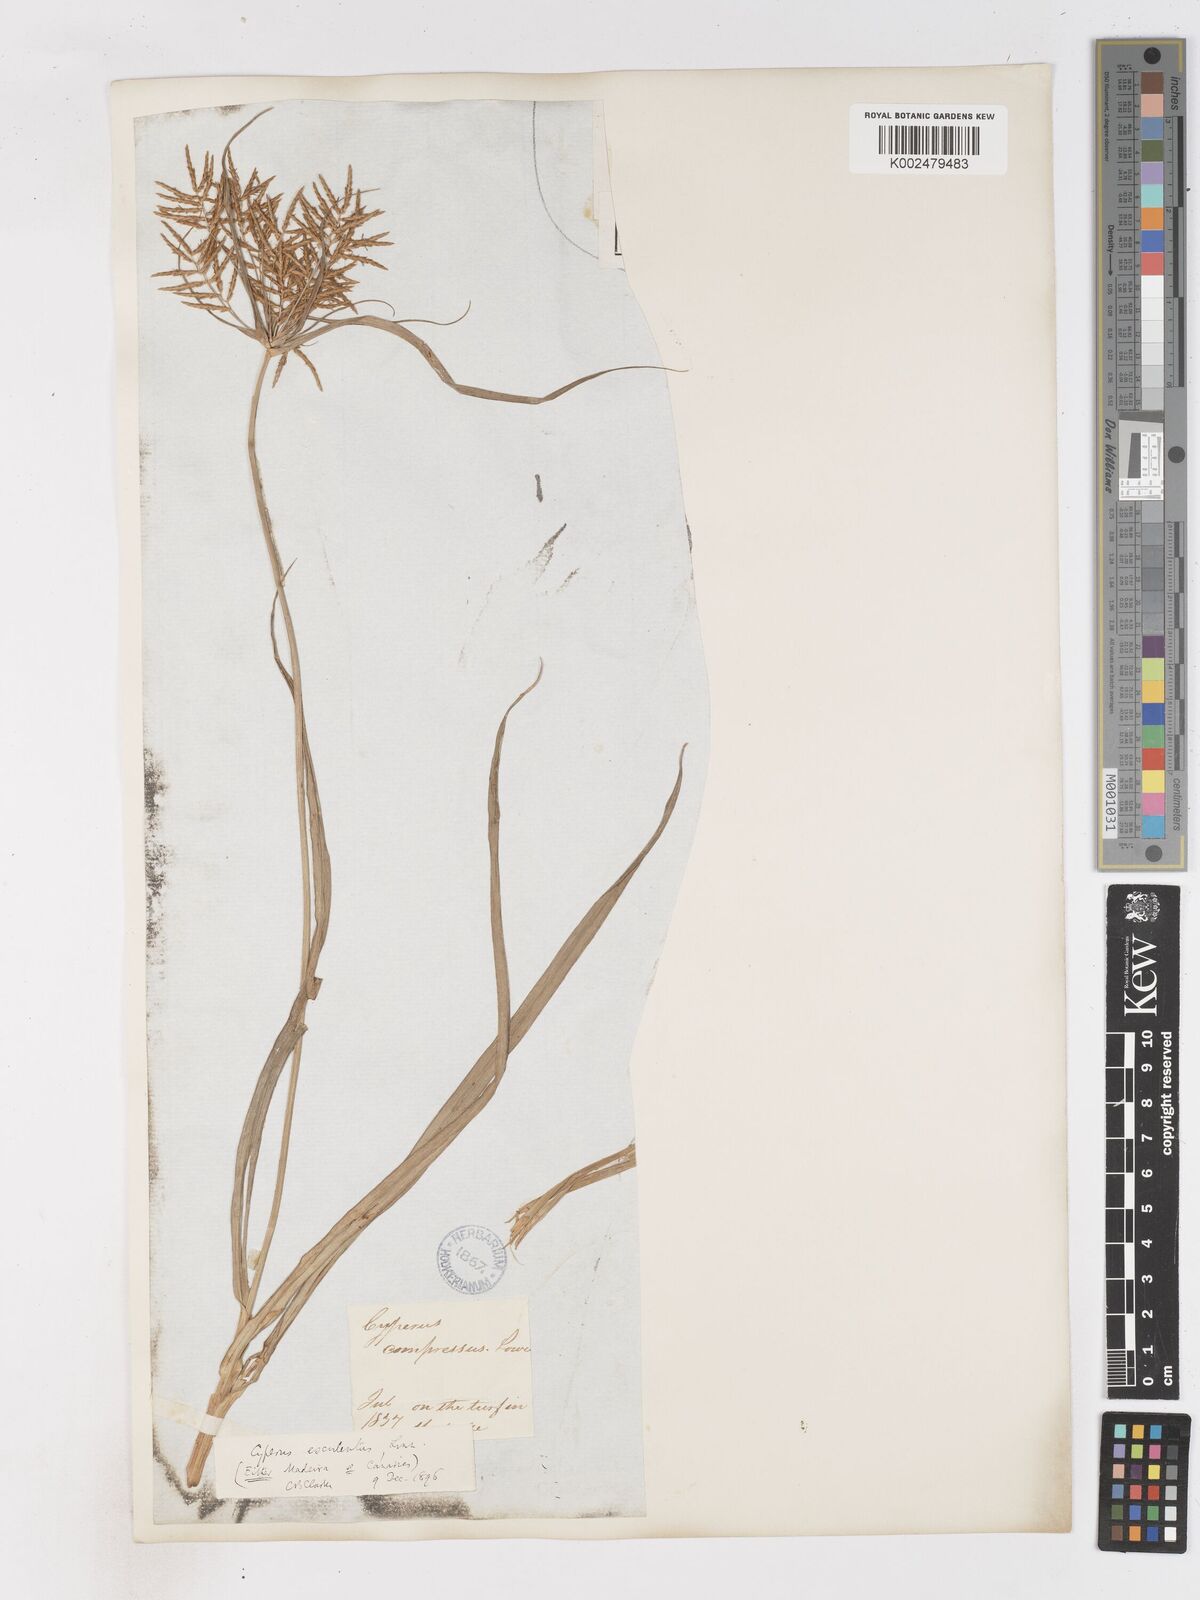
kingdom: Plantae
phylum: Tracheophyta
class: Liliopsida
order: Poales
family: Cyperaceae
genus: Cyperus
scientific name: Cyperus esculentus
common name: Yellow nutsedge
